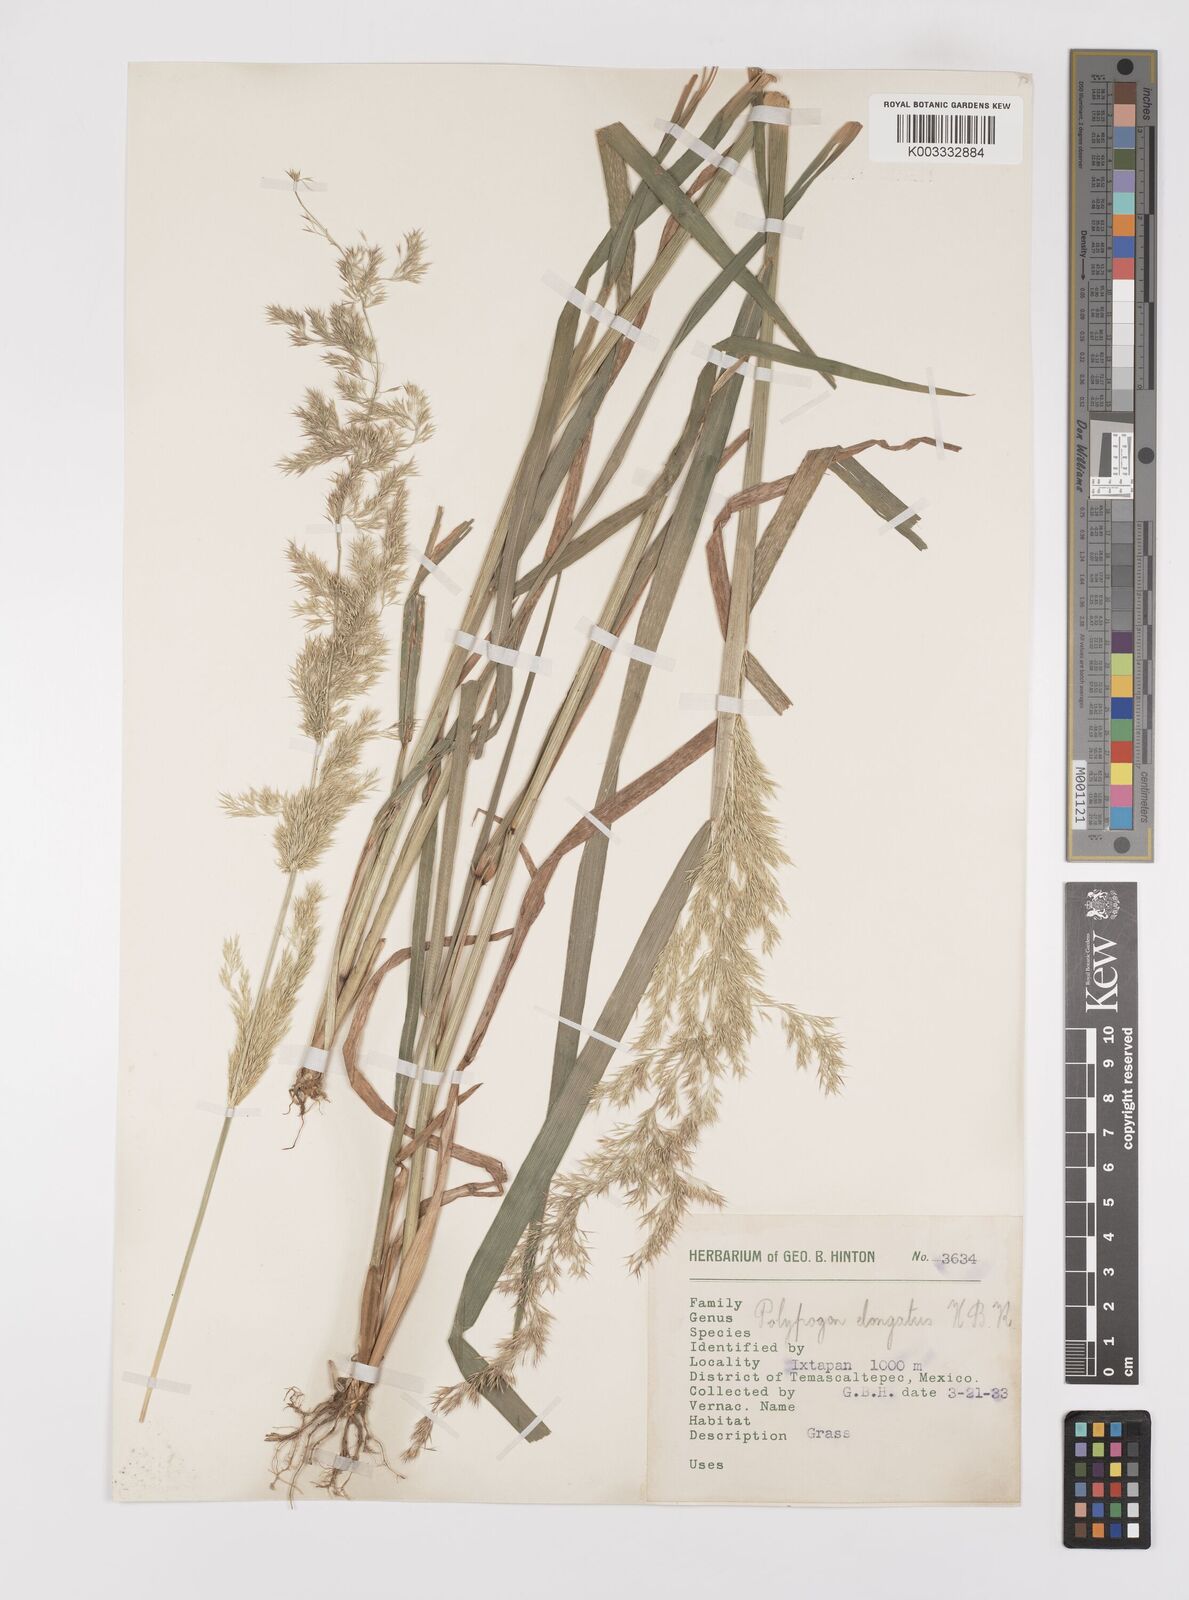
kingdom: Plantae
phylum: Tracheophyta
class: Liliopsida
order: Poales
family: Poaceae
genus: Polypogon
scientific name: Polypogon elongatus
